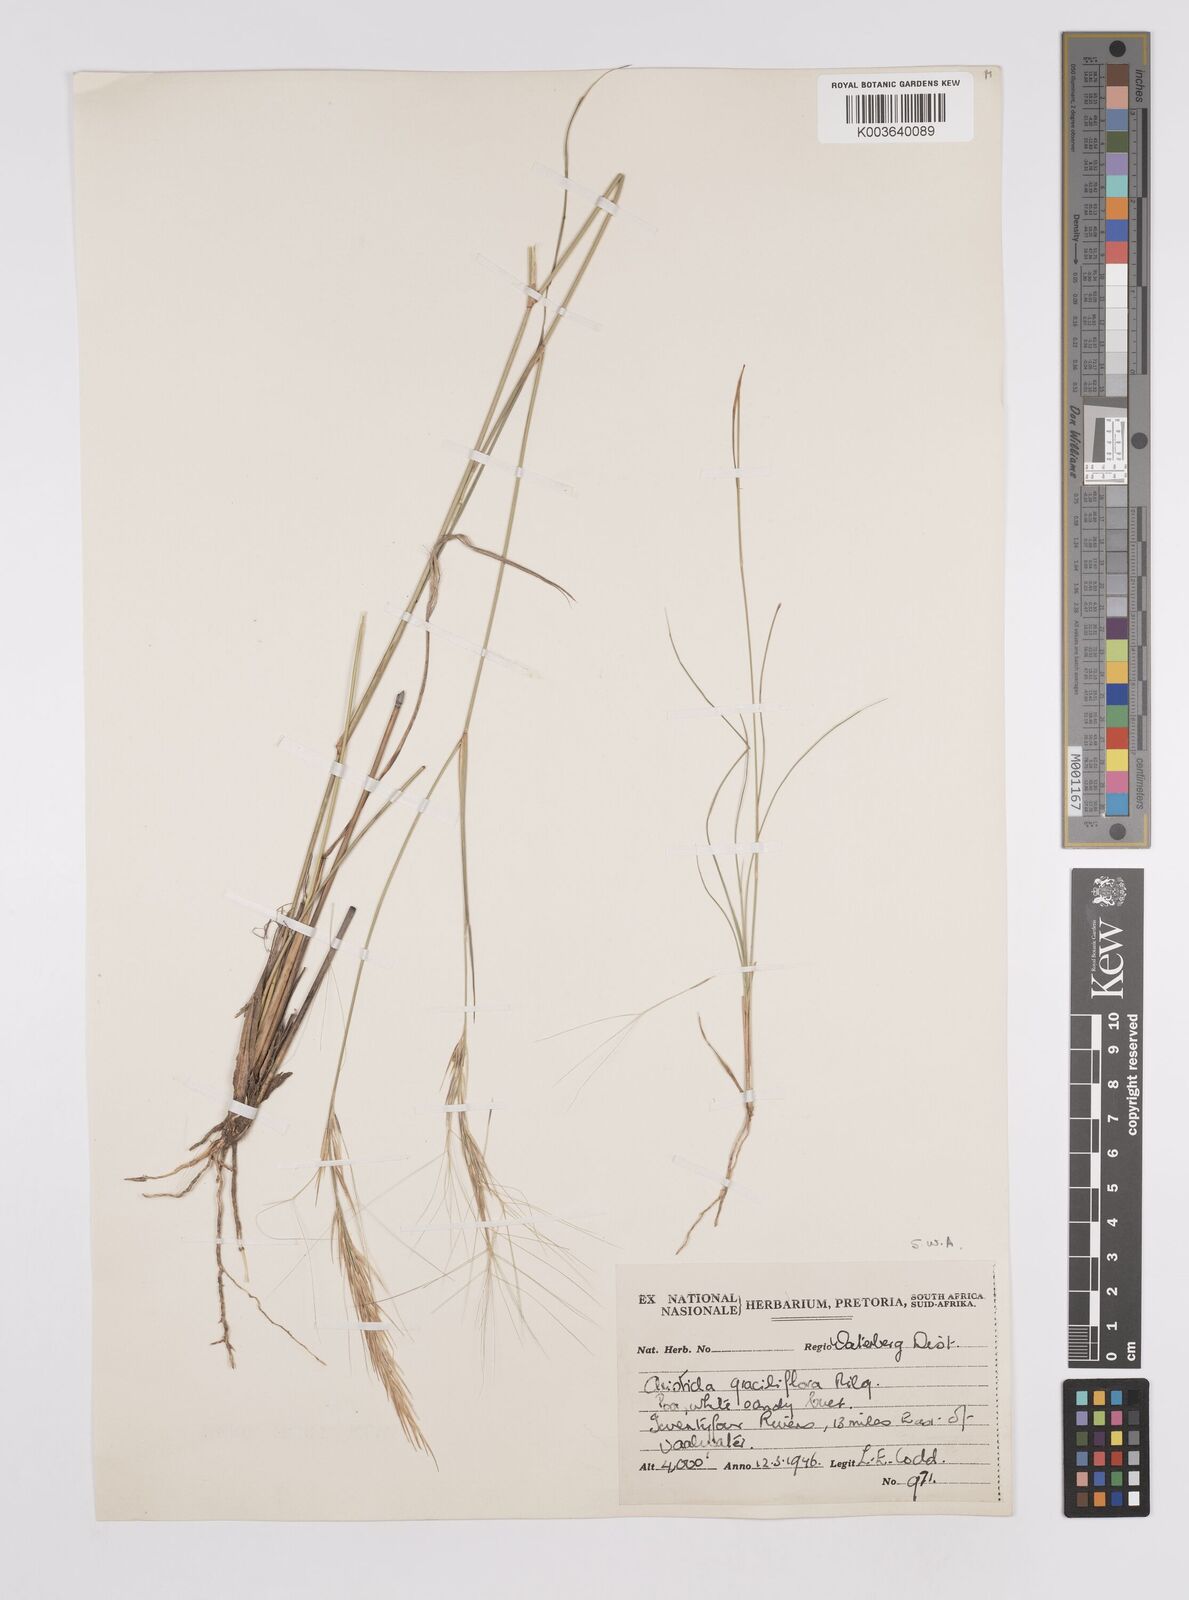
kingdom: Plantae
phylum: Tracheophyta
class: Liliopsida
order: Poales
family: Poaceae
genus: Aristida
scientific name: Aristida stipitata
